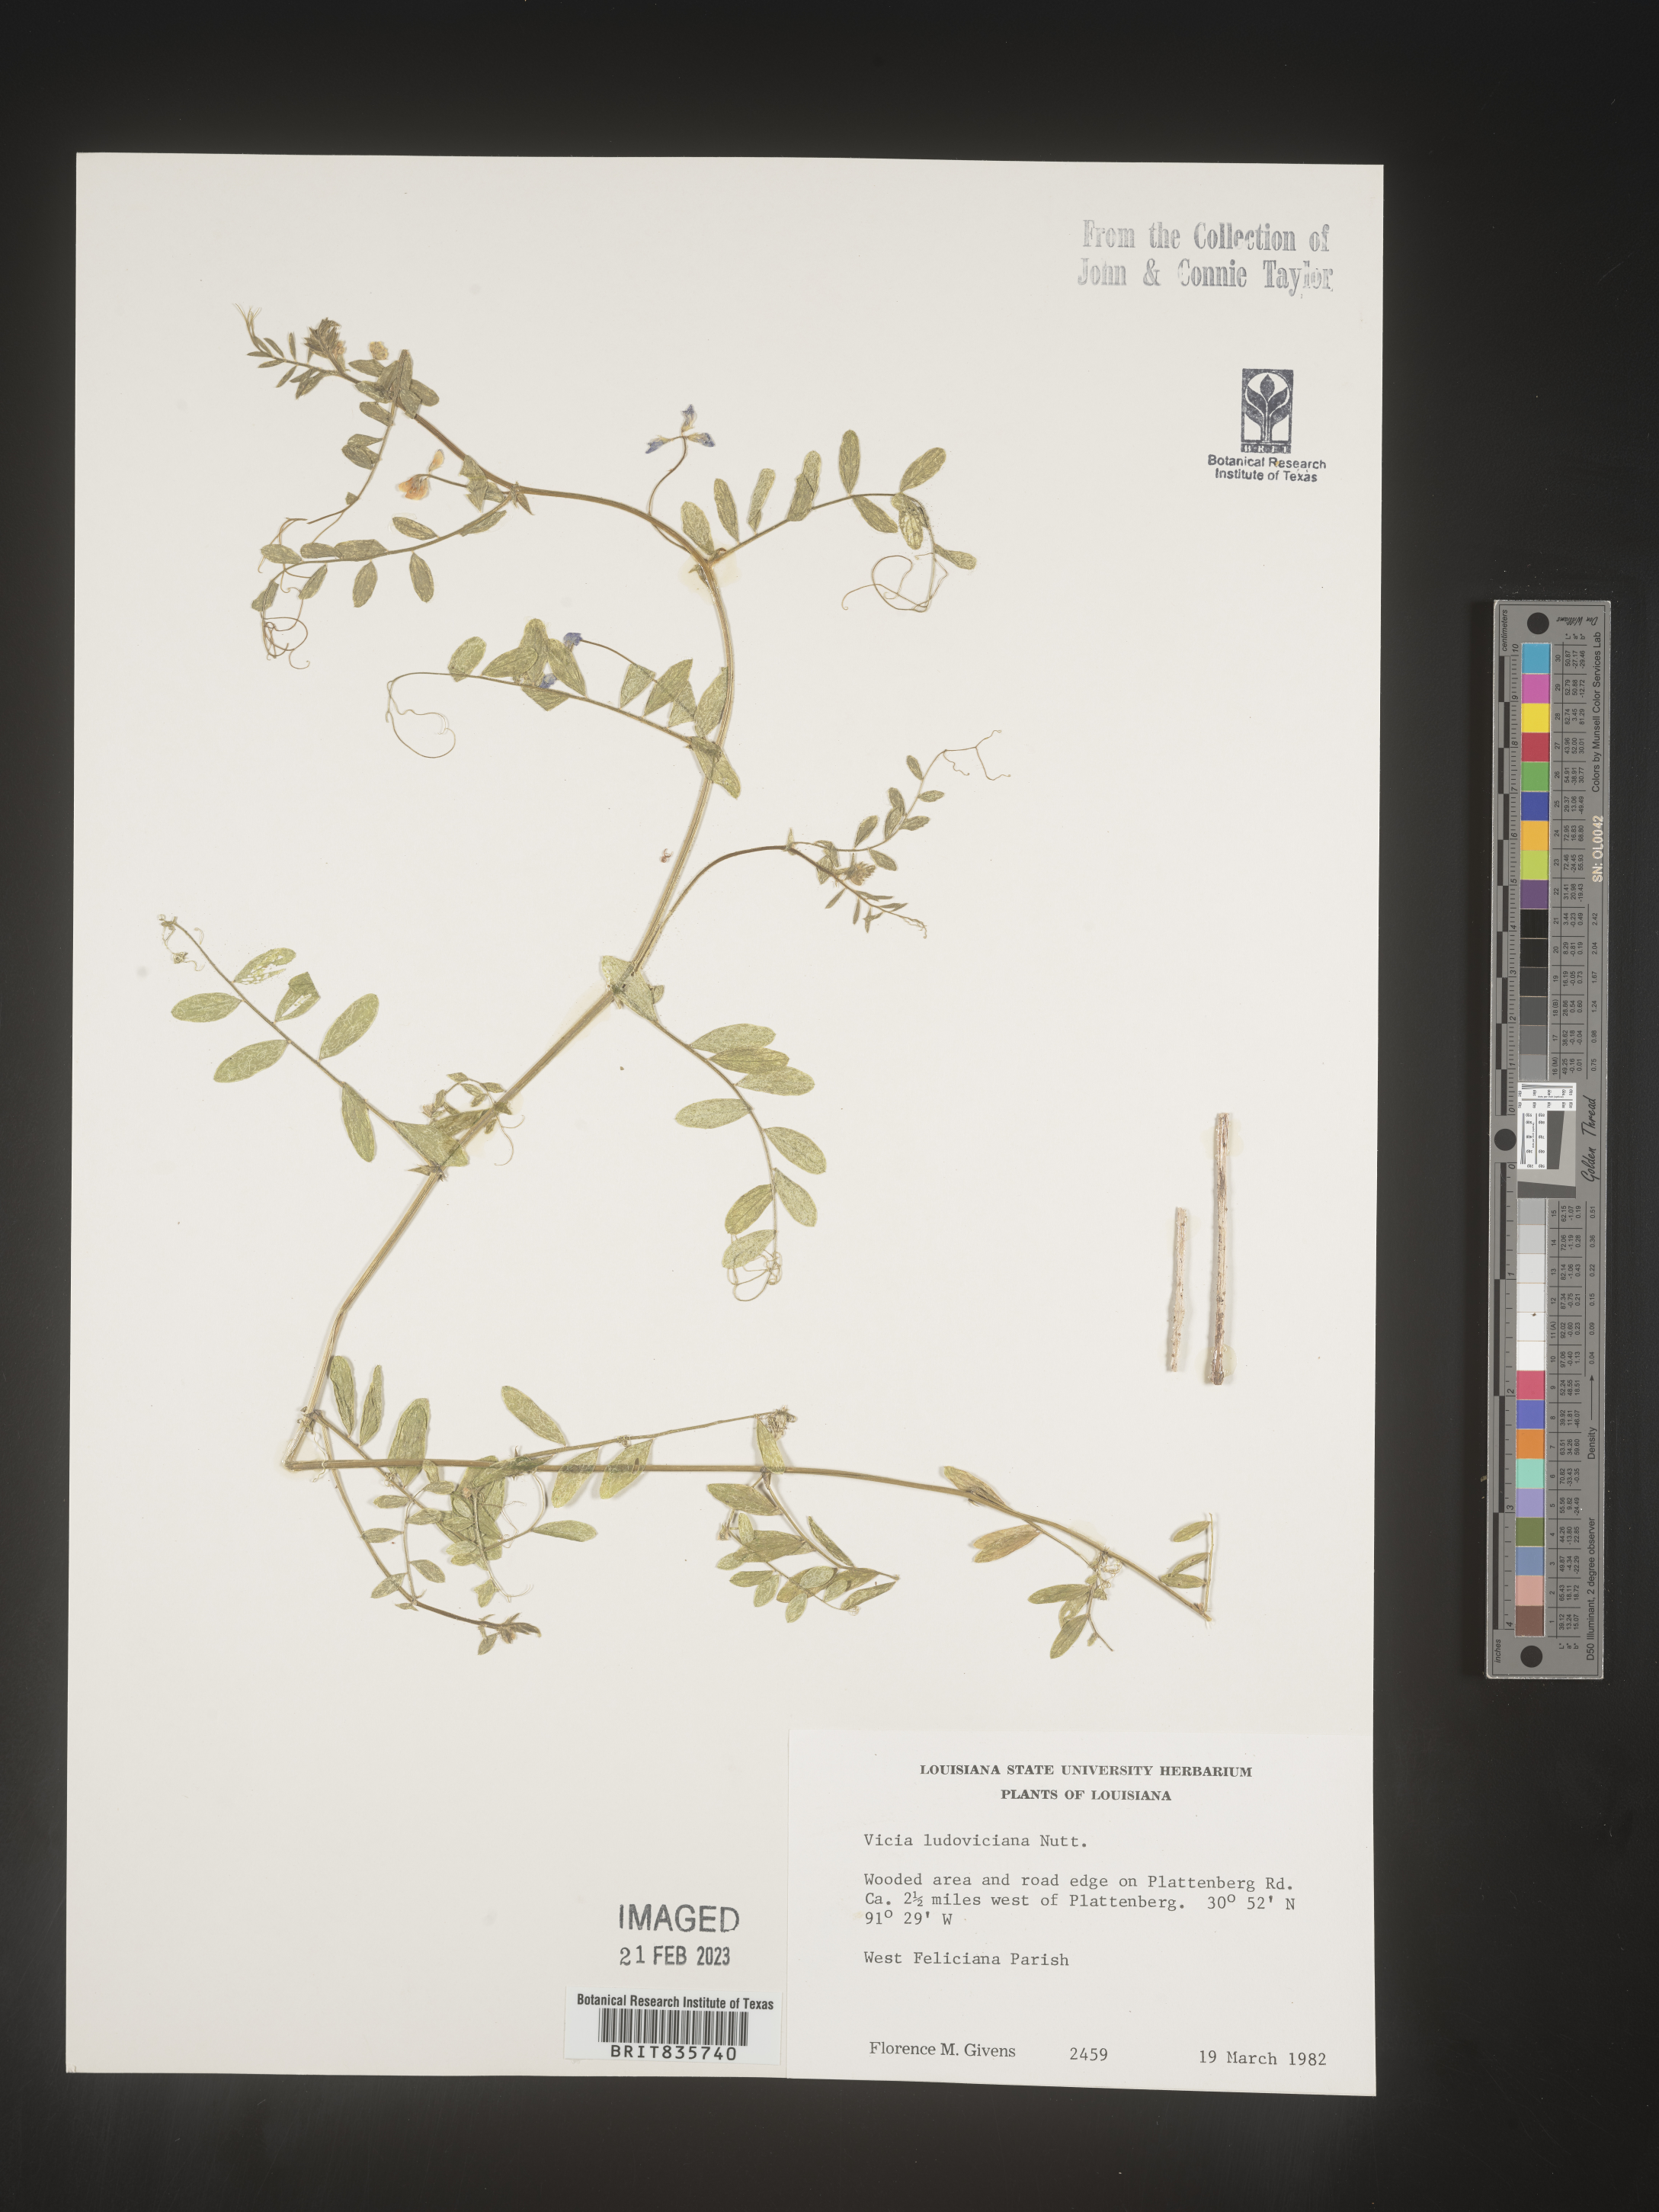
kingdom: Plantae
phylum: Tracheophyta
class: Magnoliopsida
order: Fabales
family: Fabaceae
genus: Vicia
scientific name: Vicia ludoviciana
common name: Louisiana vetch
